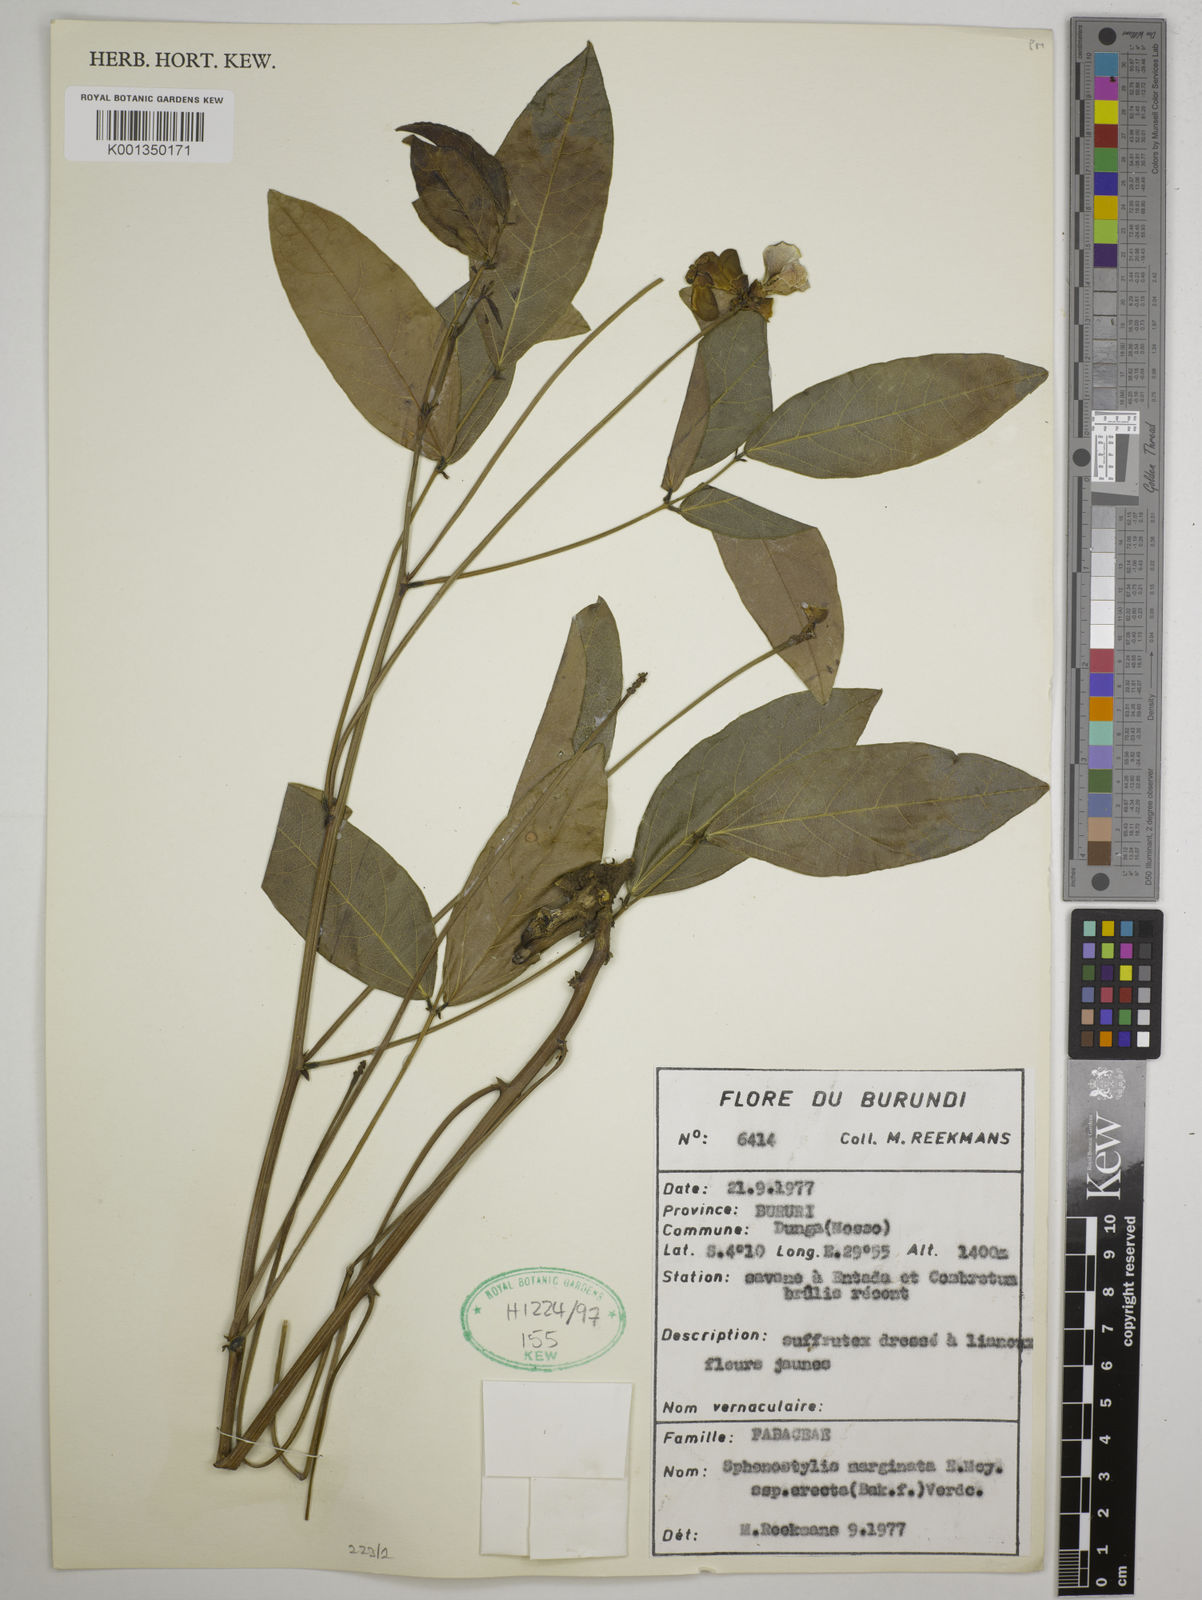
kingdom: Plantae
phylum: Tracheophyta
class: Magnoliopsida
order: Fabales
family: Fabaceae
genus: Sphenostylis
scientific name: Sphenostylis erecta
